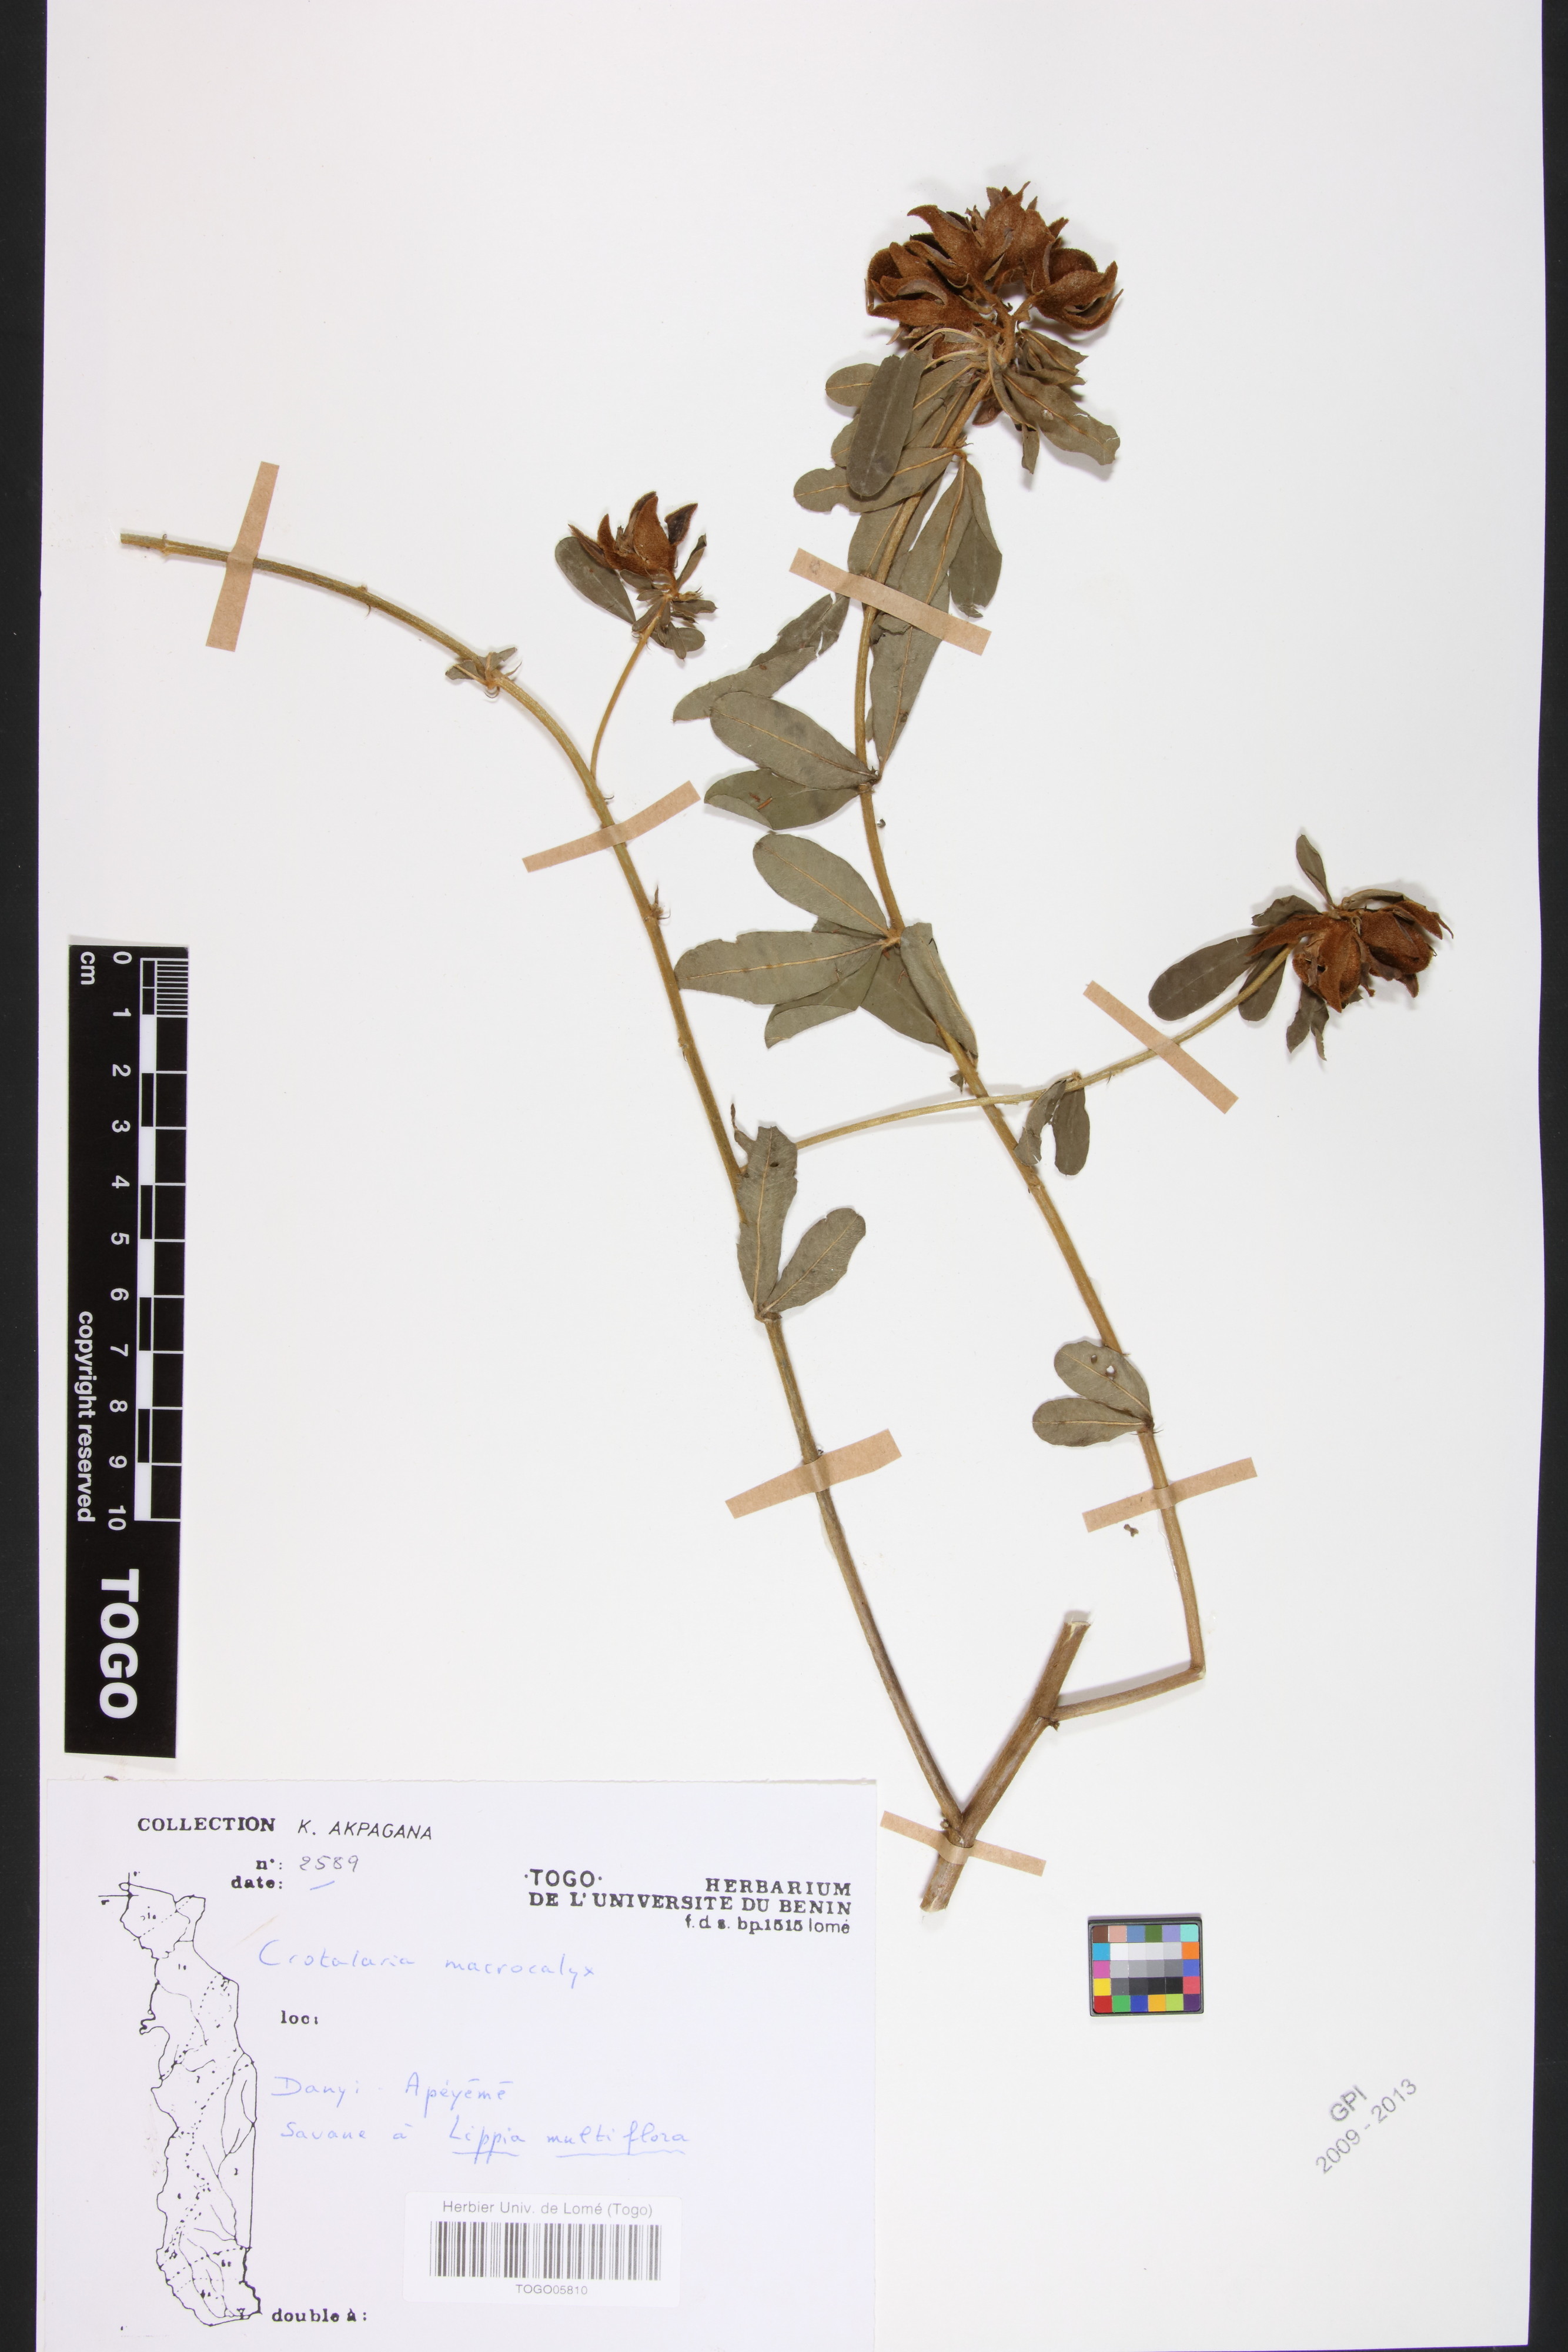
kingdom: Plantae
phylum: Tracheophyta
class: Magnoliopsida
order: Fabales
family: Fabaceae
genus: Crotalaria
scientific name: Crotalaria macrocalyx
